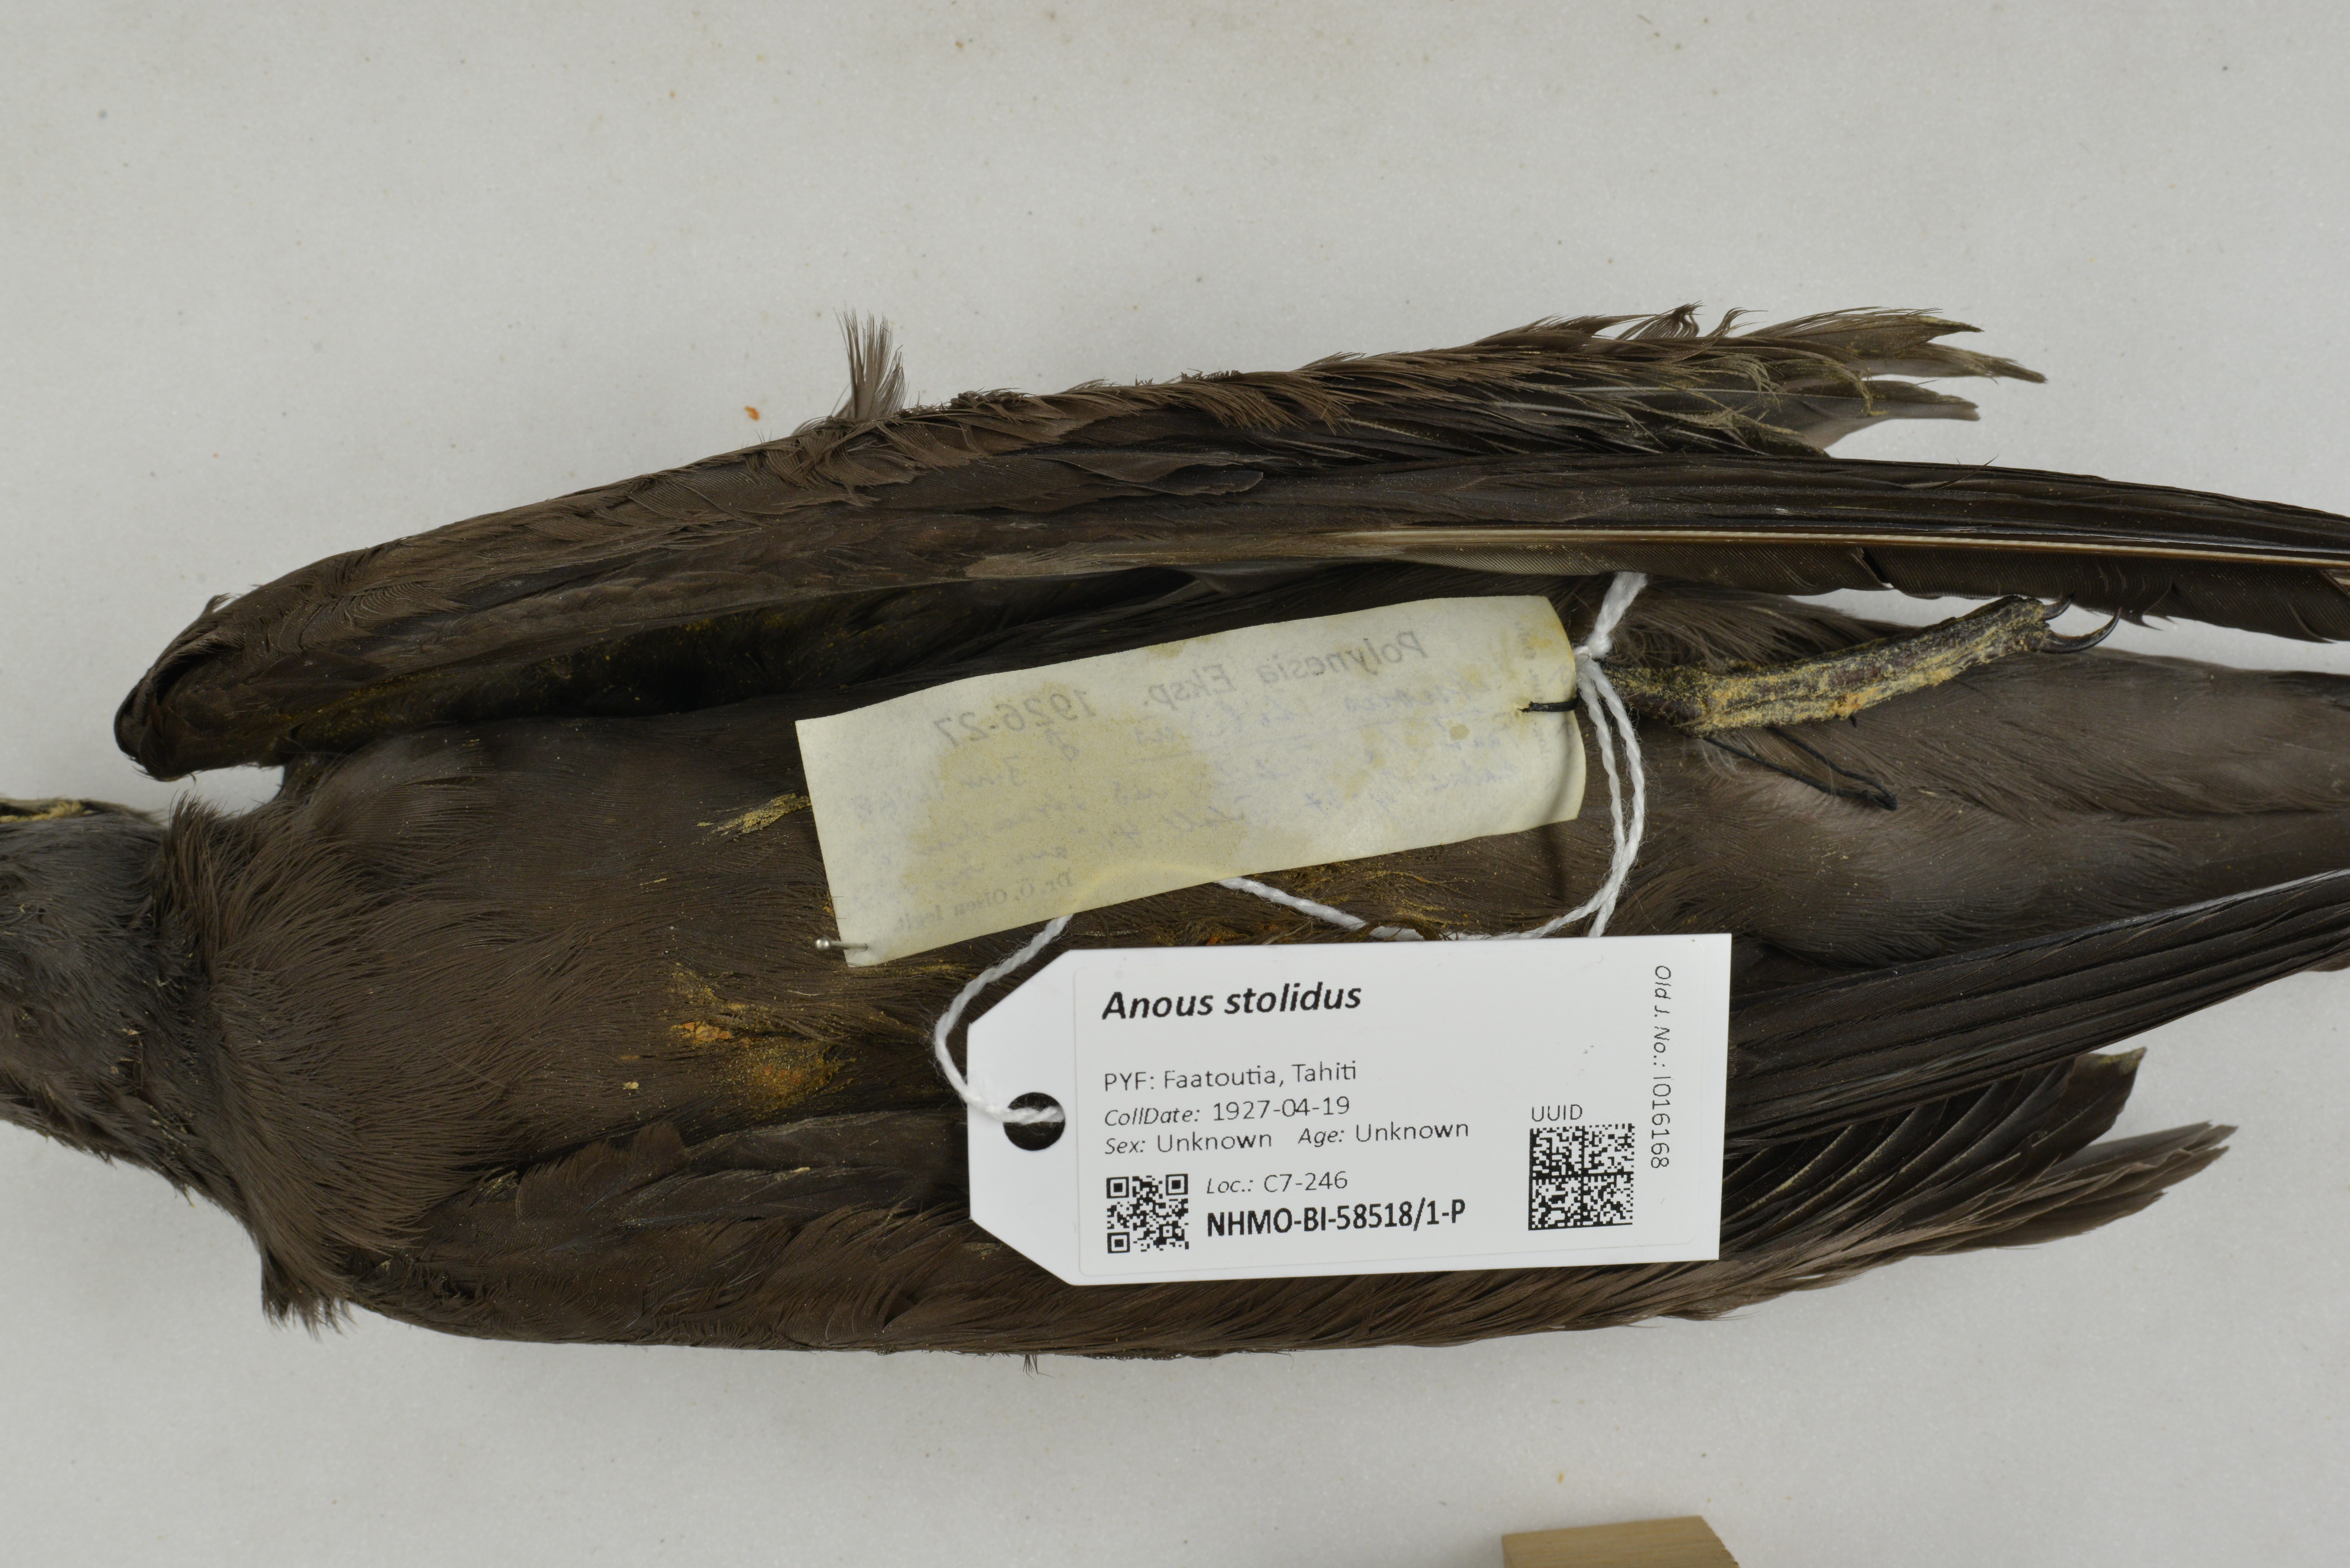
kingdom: Animalia
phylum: Chordata
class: Aves
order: Charadriiformes
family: Laridae
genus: Anous
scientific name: Anous stolidus
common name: Brown noddy
